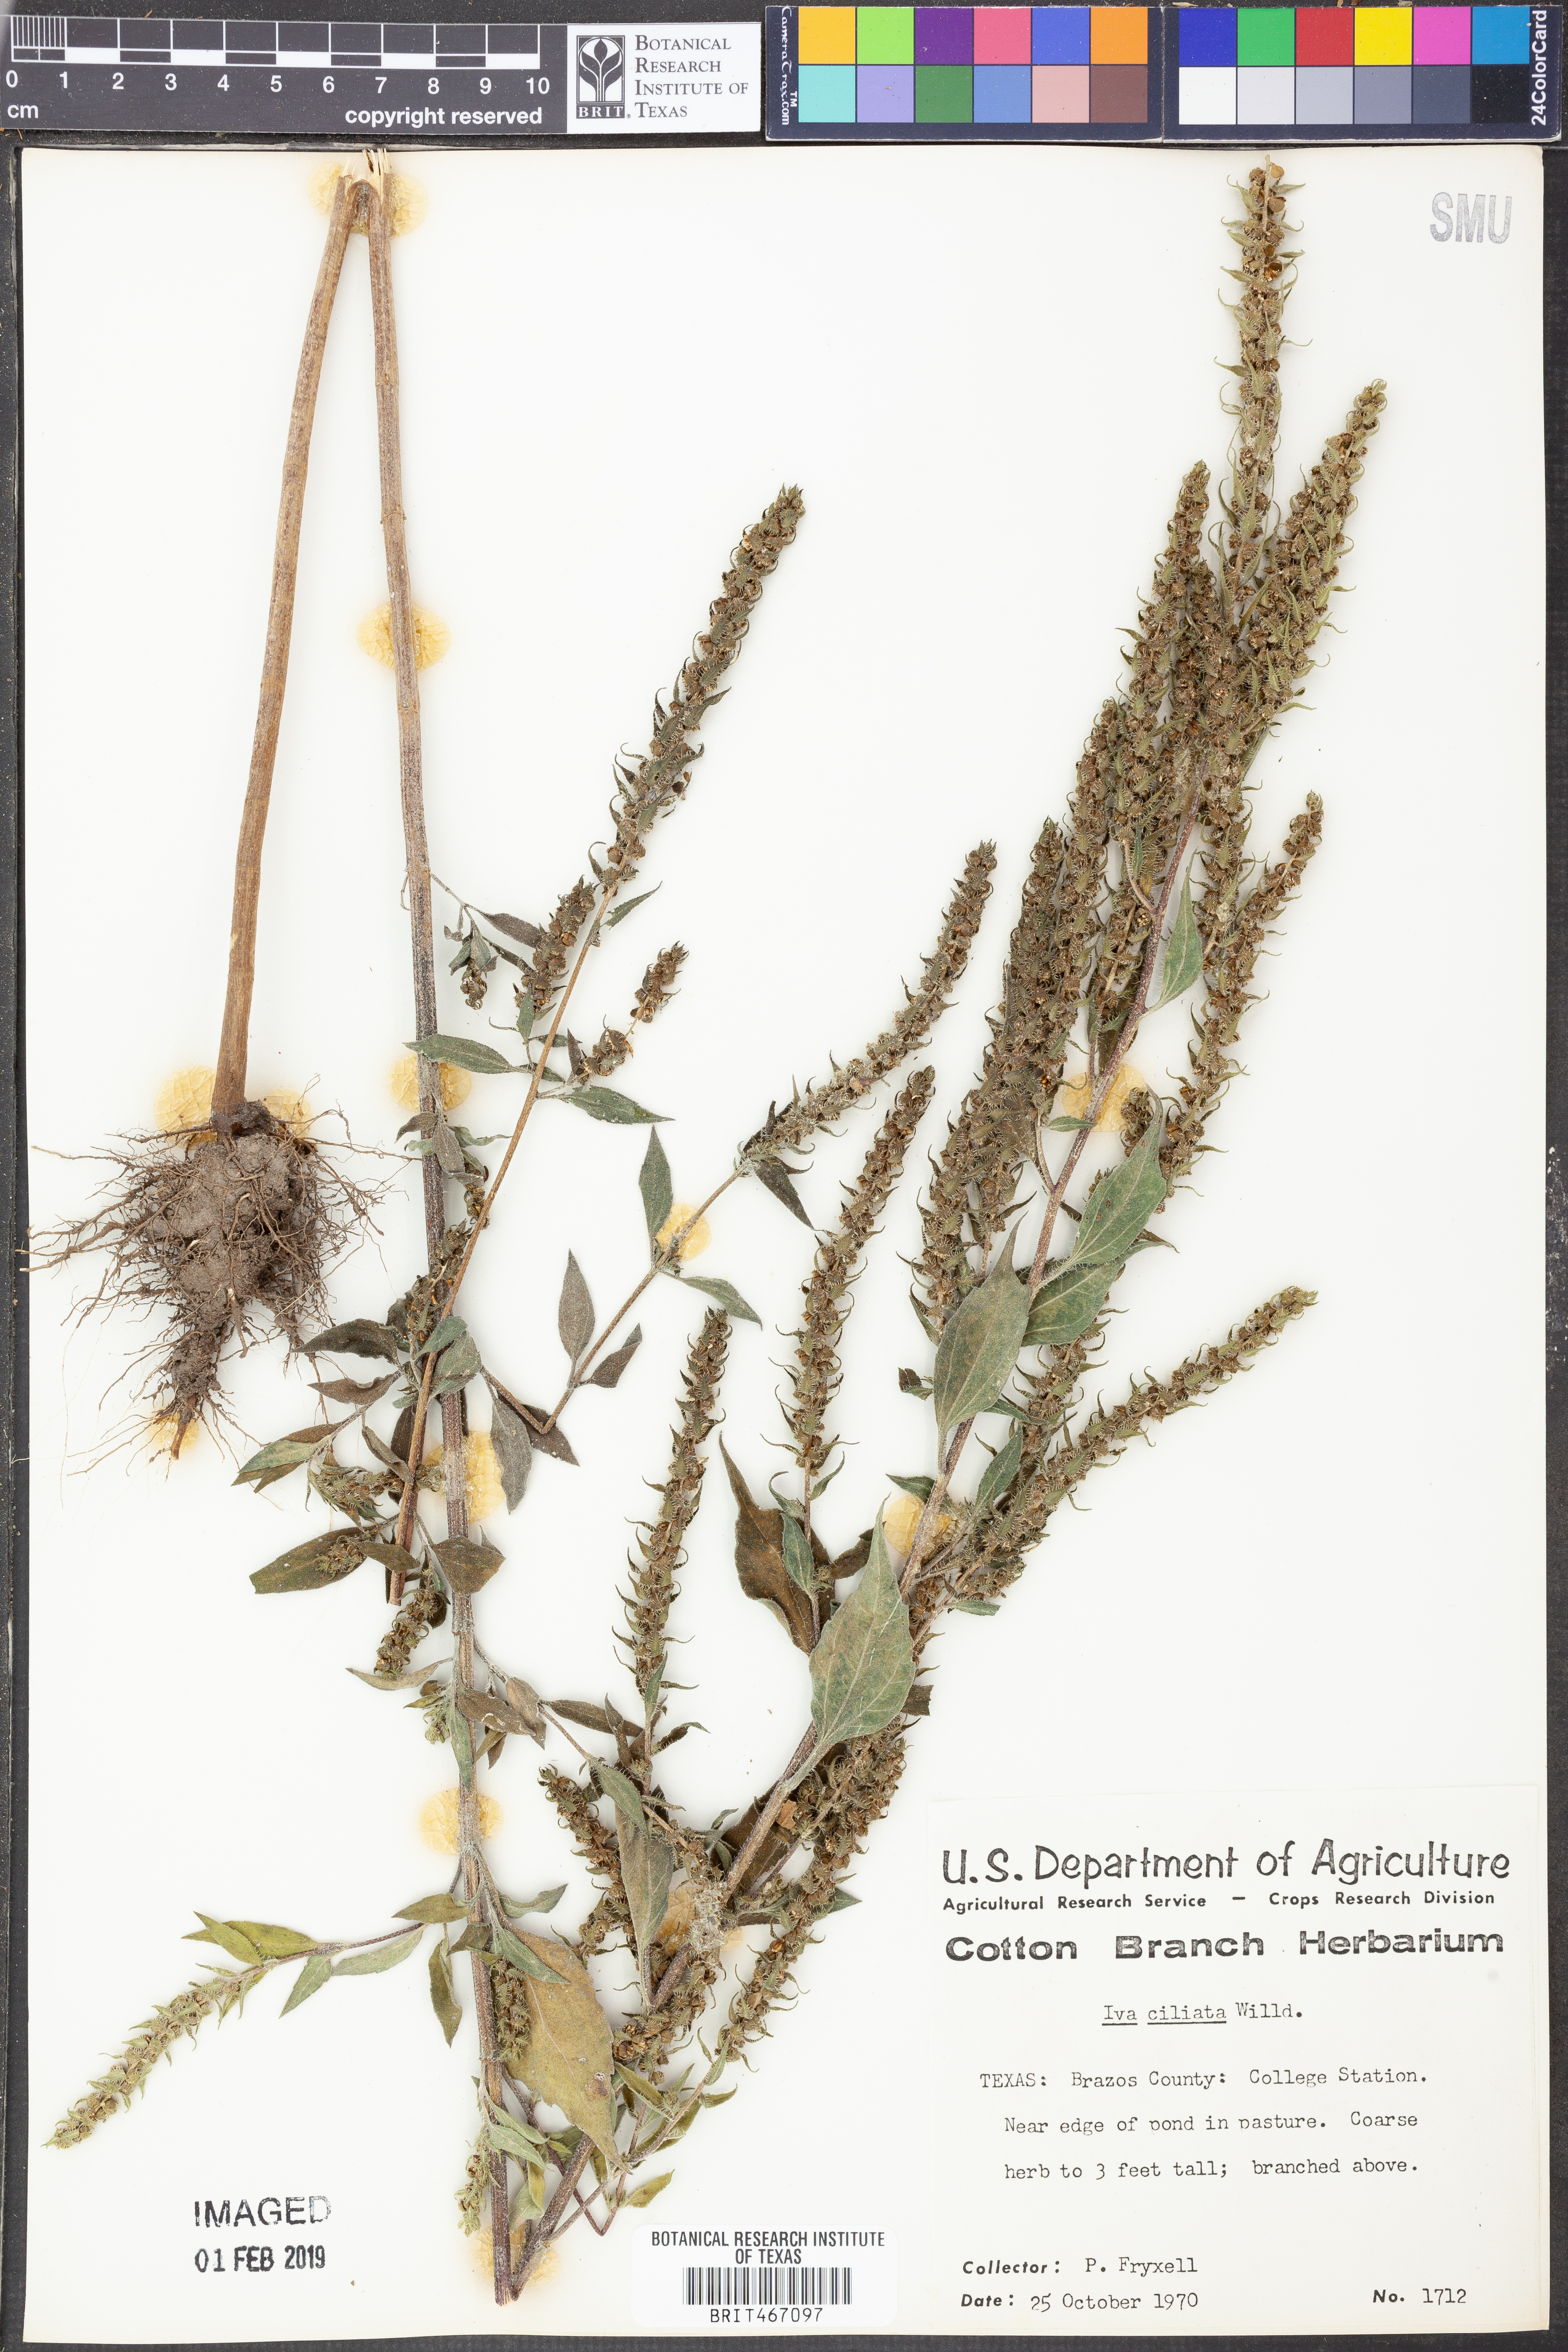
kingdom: Plantae
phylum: Tracheophyta
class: Magnoliopsida
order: Asterales
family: Asteraceae
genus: Iva
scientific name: Iva annua
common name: Marsh-elder
